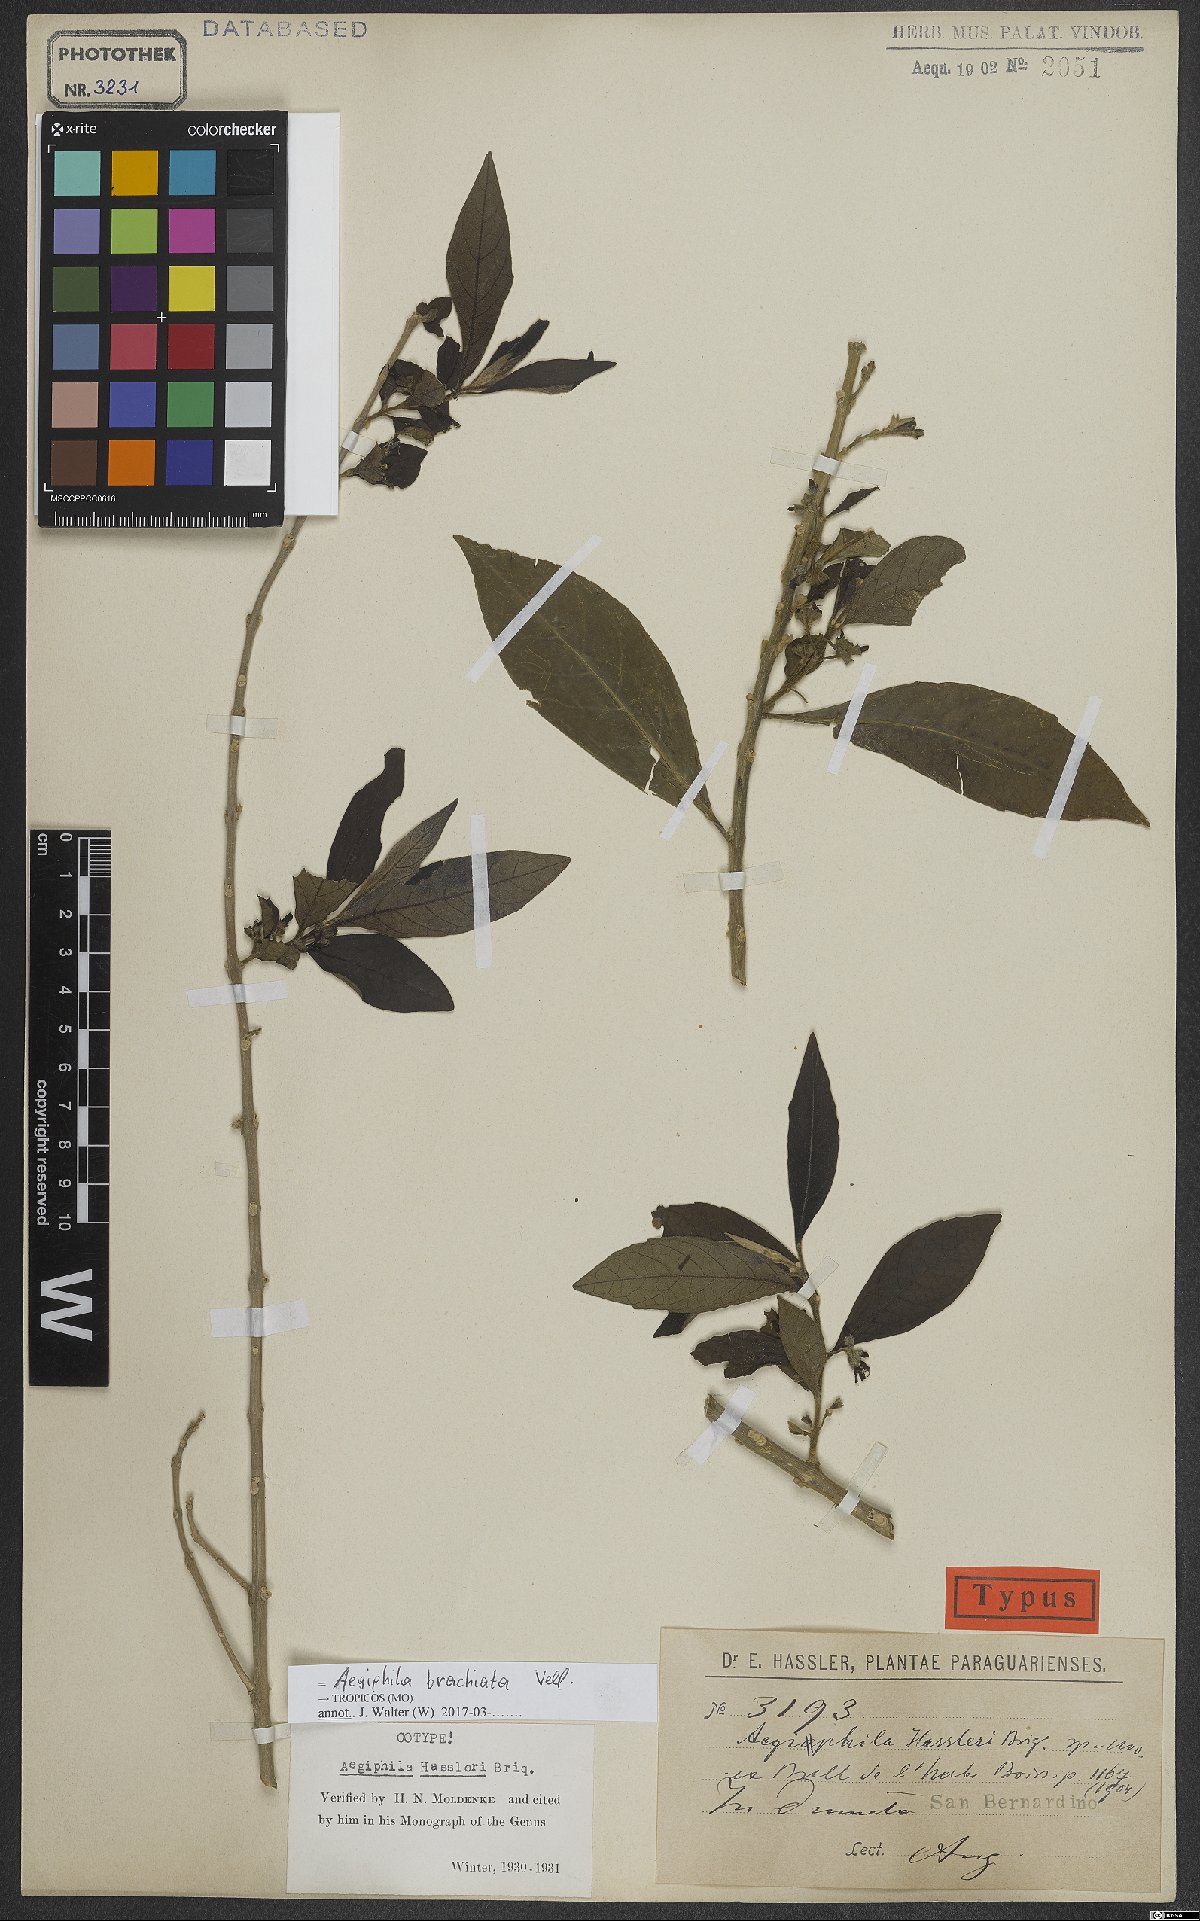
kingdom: Plantae
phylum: Tracheophyta
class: Magnoliopsida
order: Lamiales
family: Lamiaceae
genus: Aegiphila
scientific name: Aegiphila brachiata
